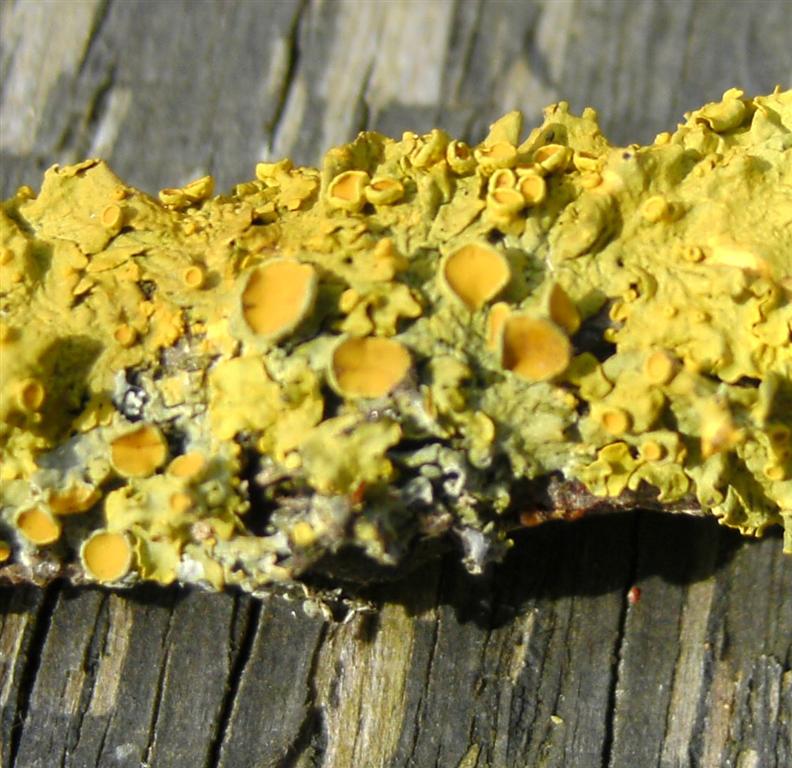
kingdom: Fungi
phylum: Ascomycota
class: Lecanoromycetes
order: Teloschistales
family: Teloschistaceae
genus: Xanthoria
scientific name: Xanthoria parietina
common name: almindelig væggelav
